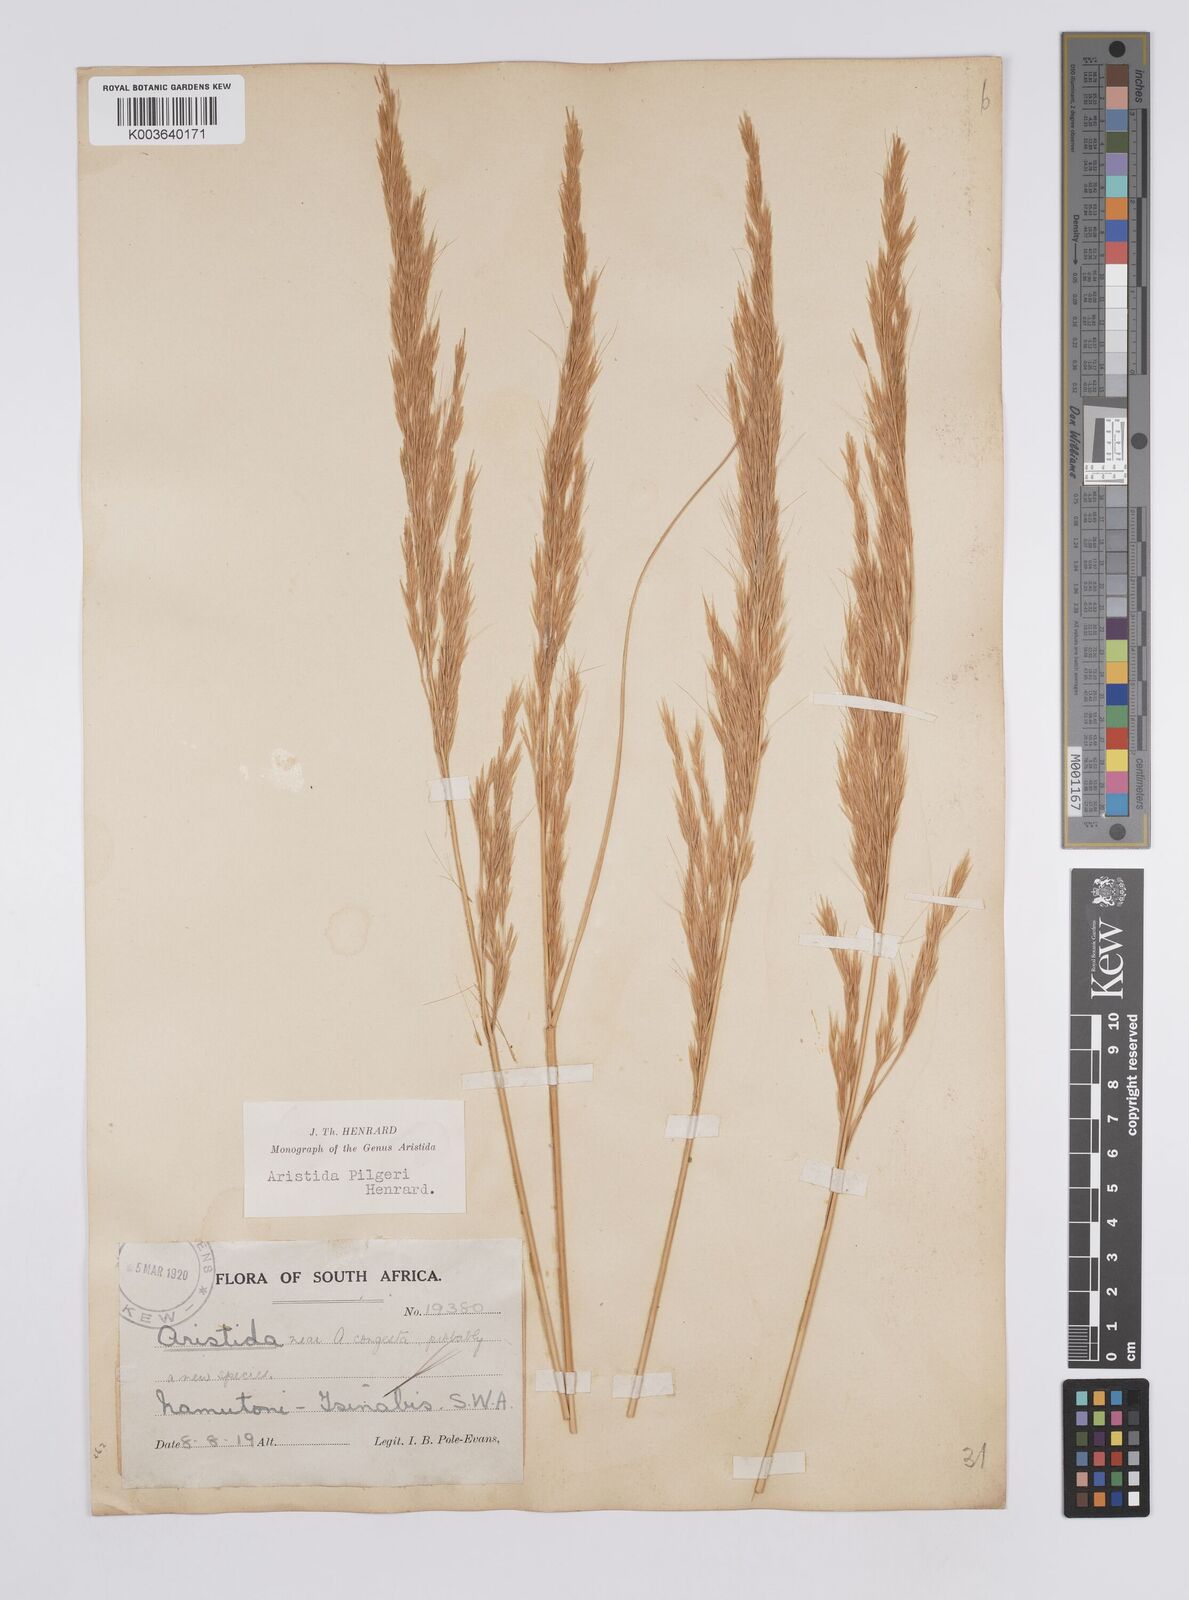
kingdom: Plantae
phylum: Tracheophyta
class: Liliopsida
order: Poales
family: Poaceae
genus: Aristida
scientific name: Aristida pilgeri
